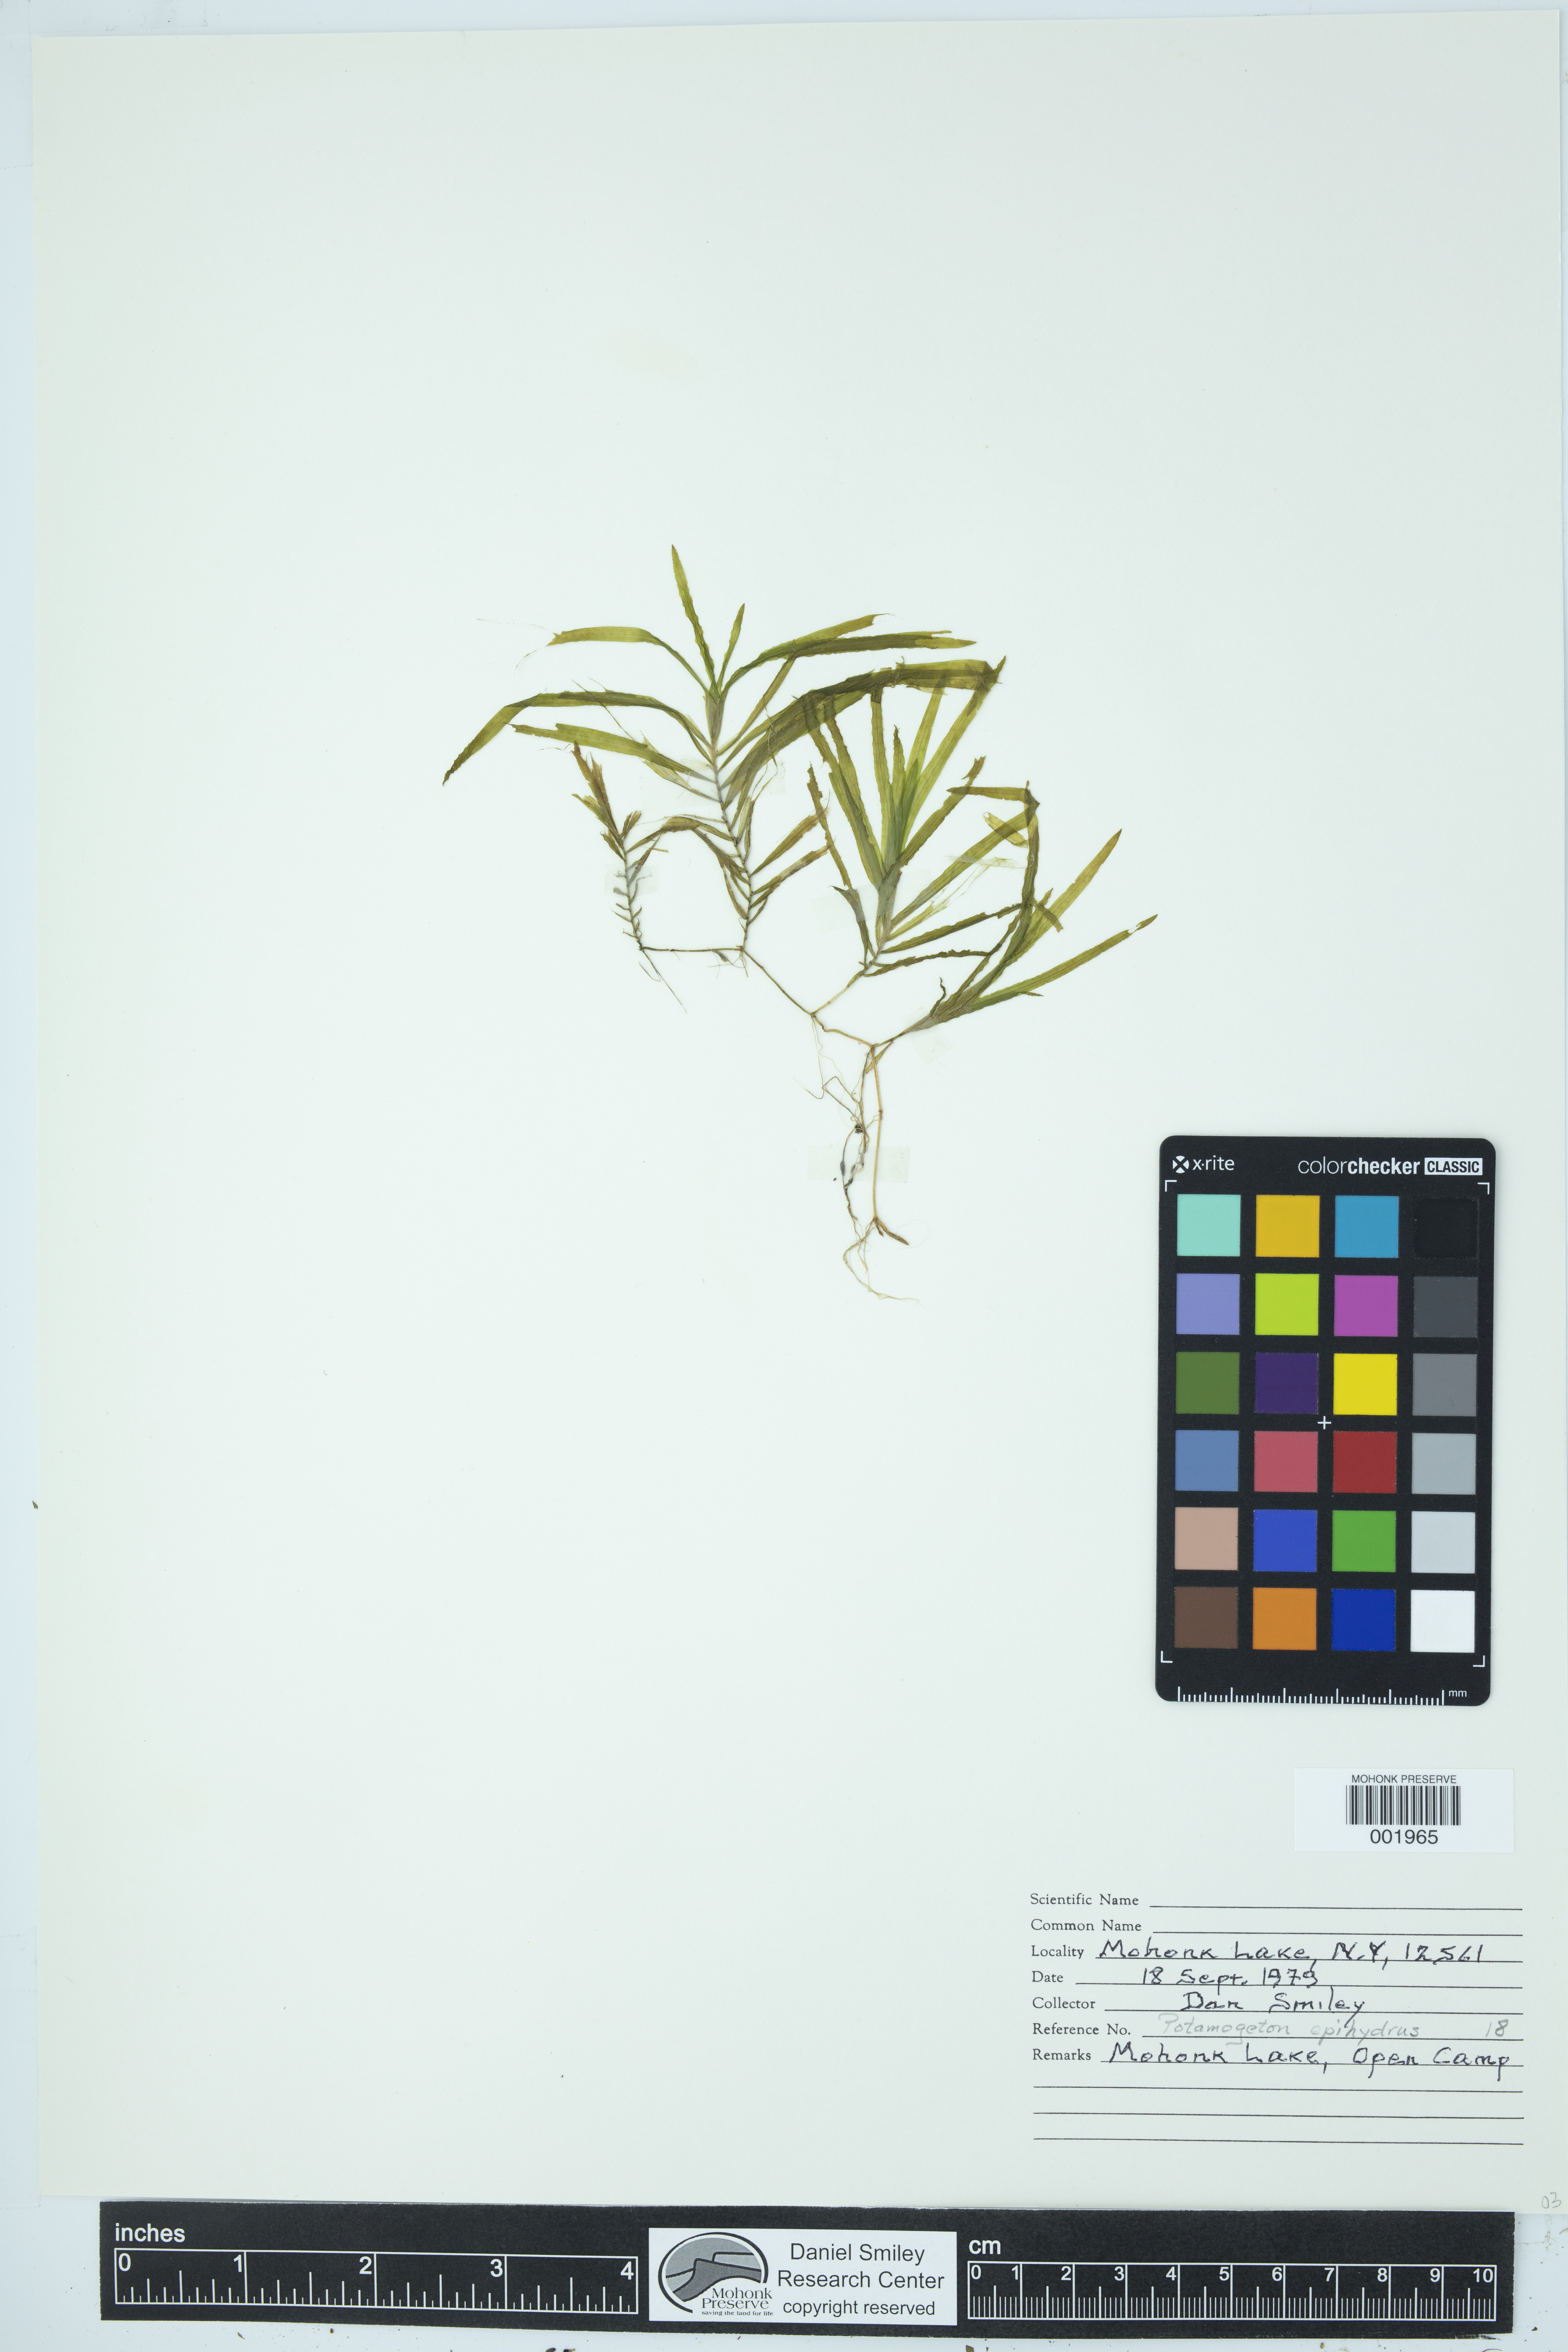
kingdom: Plantae
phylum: Tracheophyta
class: Liliopsida
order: Alismatales
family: Potamogetonaceae
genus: Potamogeton
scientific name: Potamogeton epihydrus
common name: American pondweed
